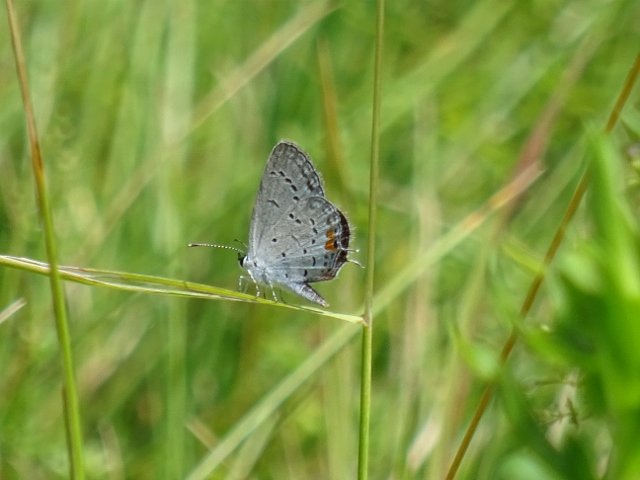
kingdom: Animalia
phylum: Arthropoda
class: Insecta
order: Lepidoptera
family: Lycaenidae
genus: Elkalyce
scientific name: Elkalyce comyntas
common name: Eastern Tailed-Blue
